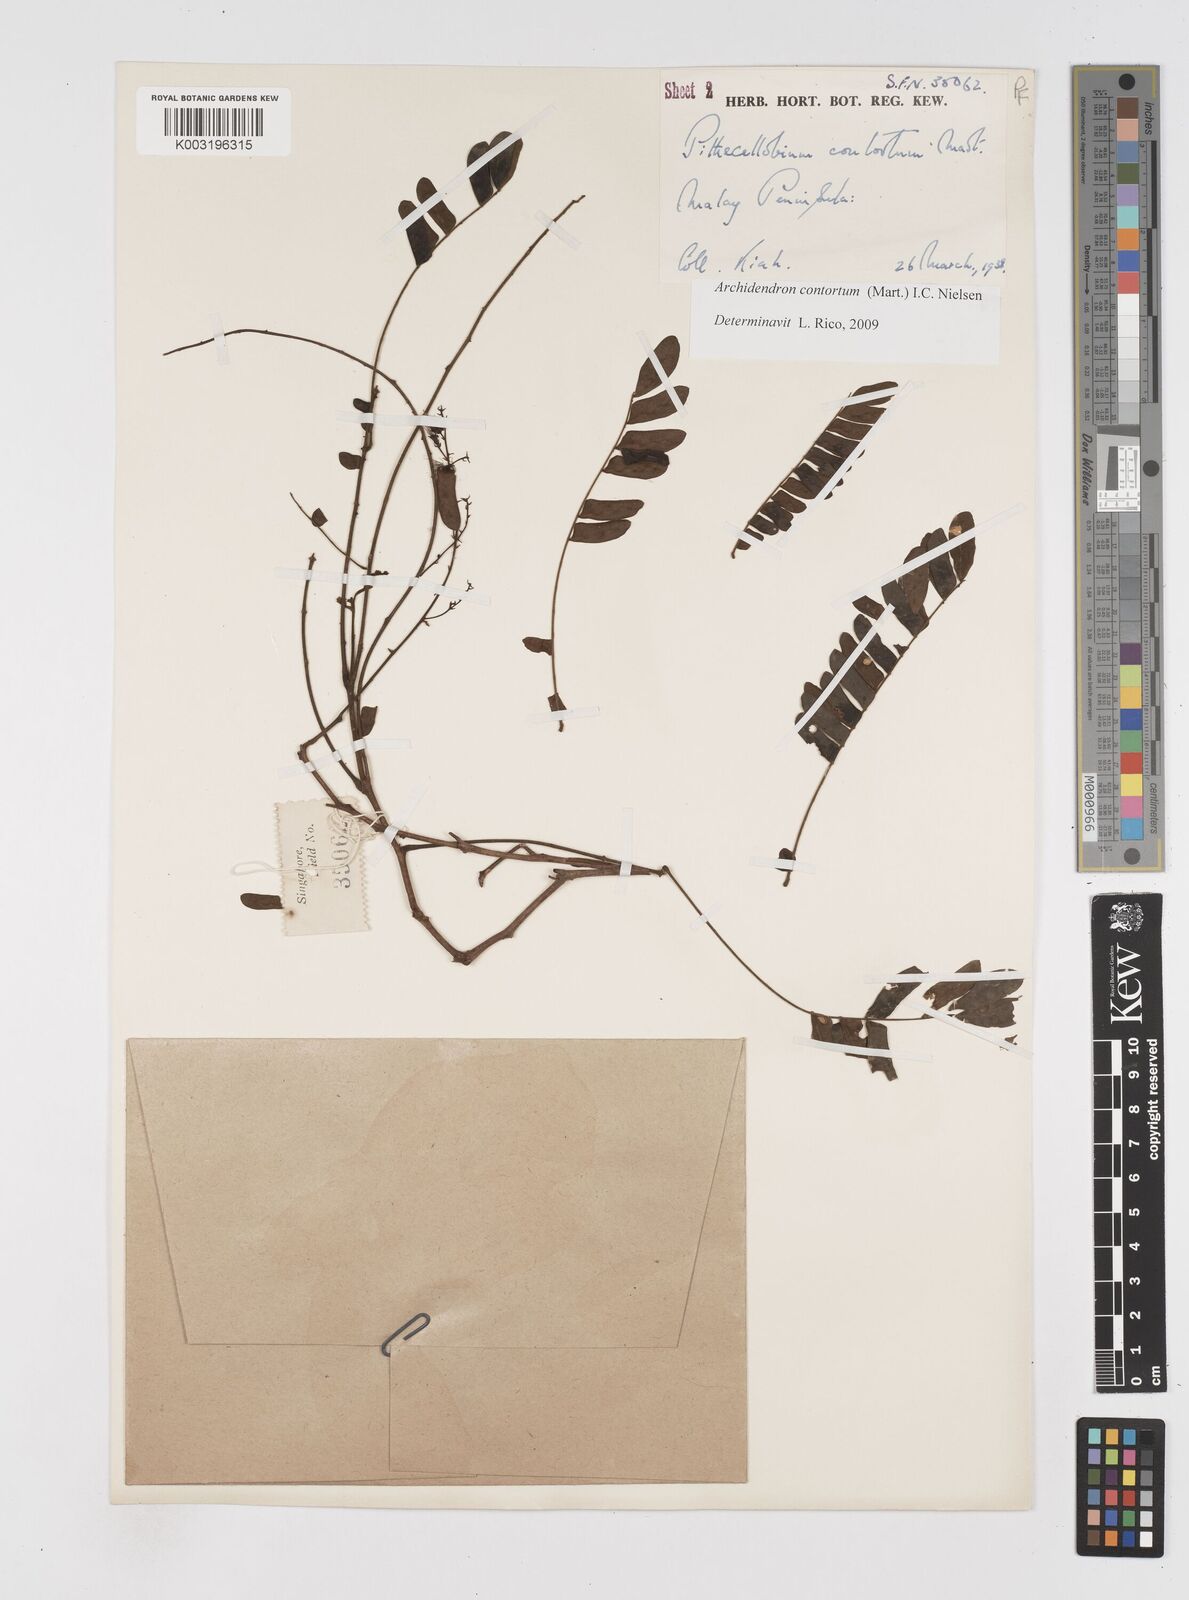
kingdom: Plantae
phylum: Tracheophyta
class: Magnoliopsida
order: Fabales
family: Fabaceae
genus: Archidendron
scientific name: Archidendron contortum
